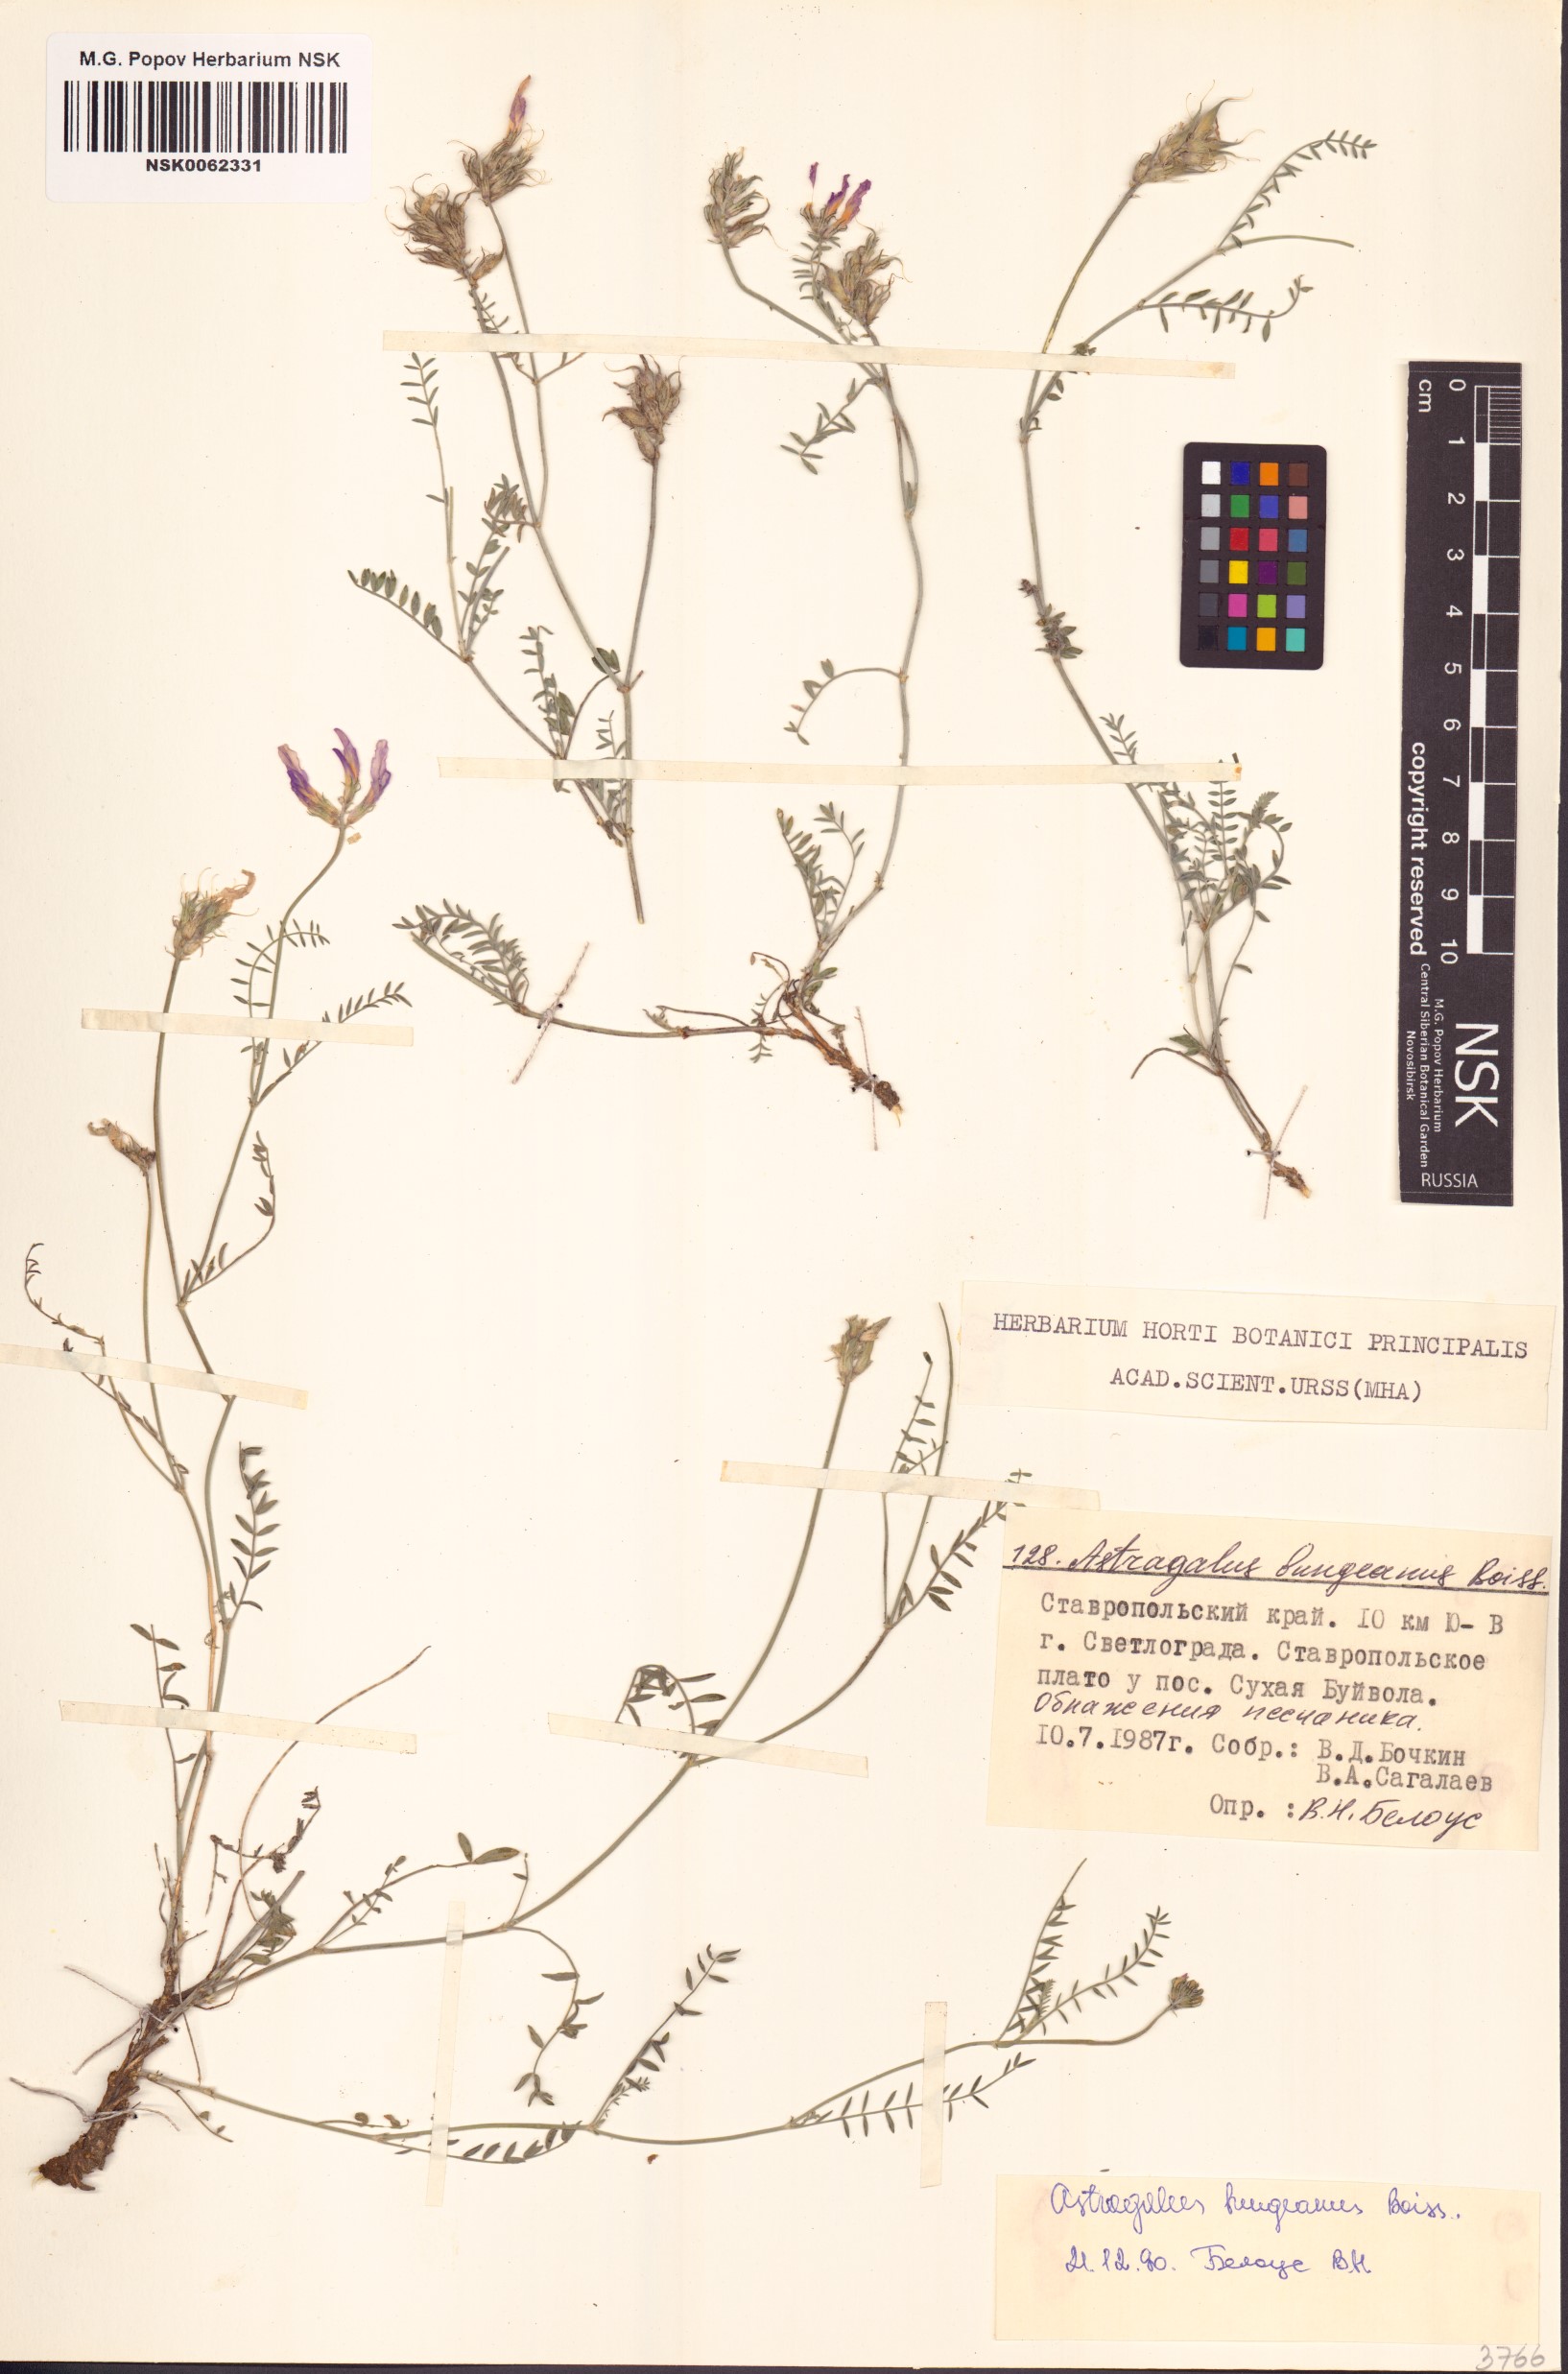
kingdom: Plantae
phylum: Tracheophyta
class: Magnoliopsida
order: Fabales
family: Fabaceae
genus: Astragalus
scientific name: Astragalus bungeanus
